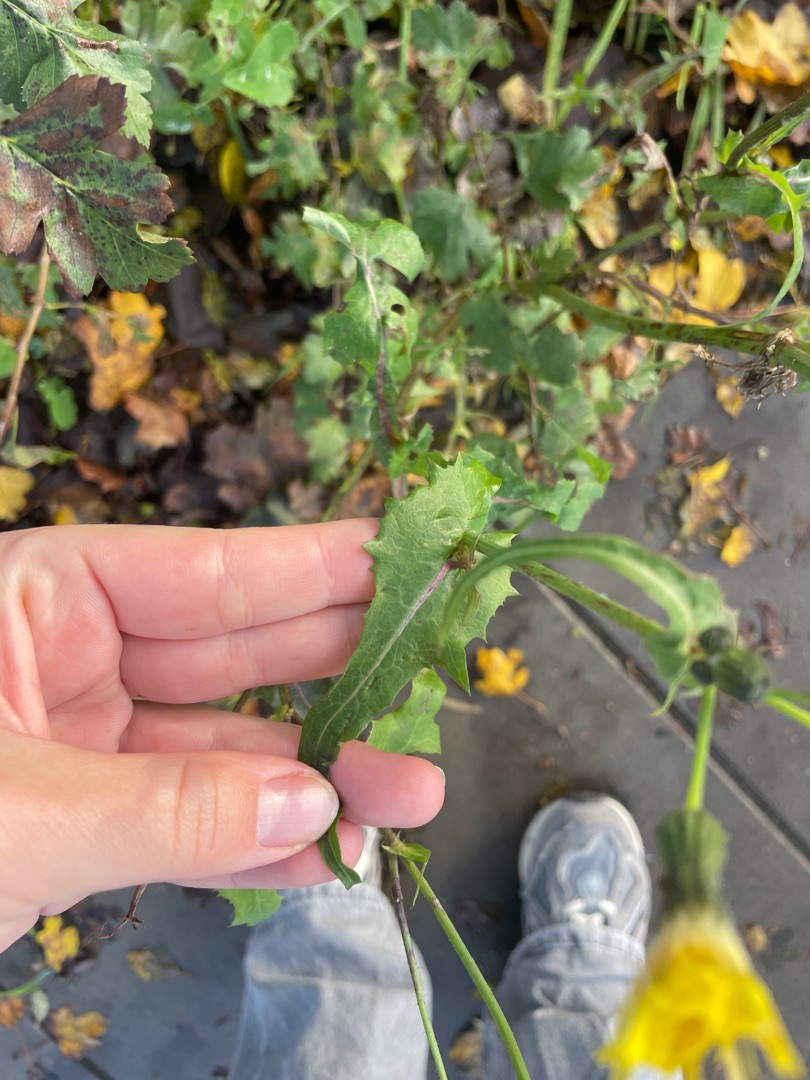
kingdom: Plantae
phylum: Tracheophyta
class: Magnoliopsida
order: Asterales
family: Asteraceae
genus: Sonchus
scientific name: Sonchus oleraceus
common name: Almindelig svinemælk
